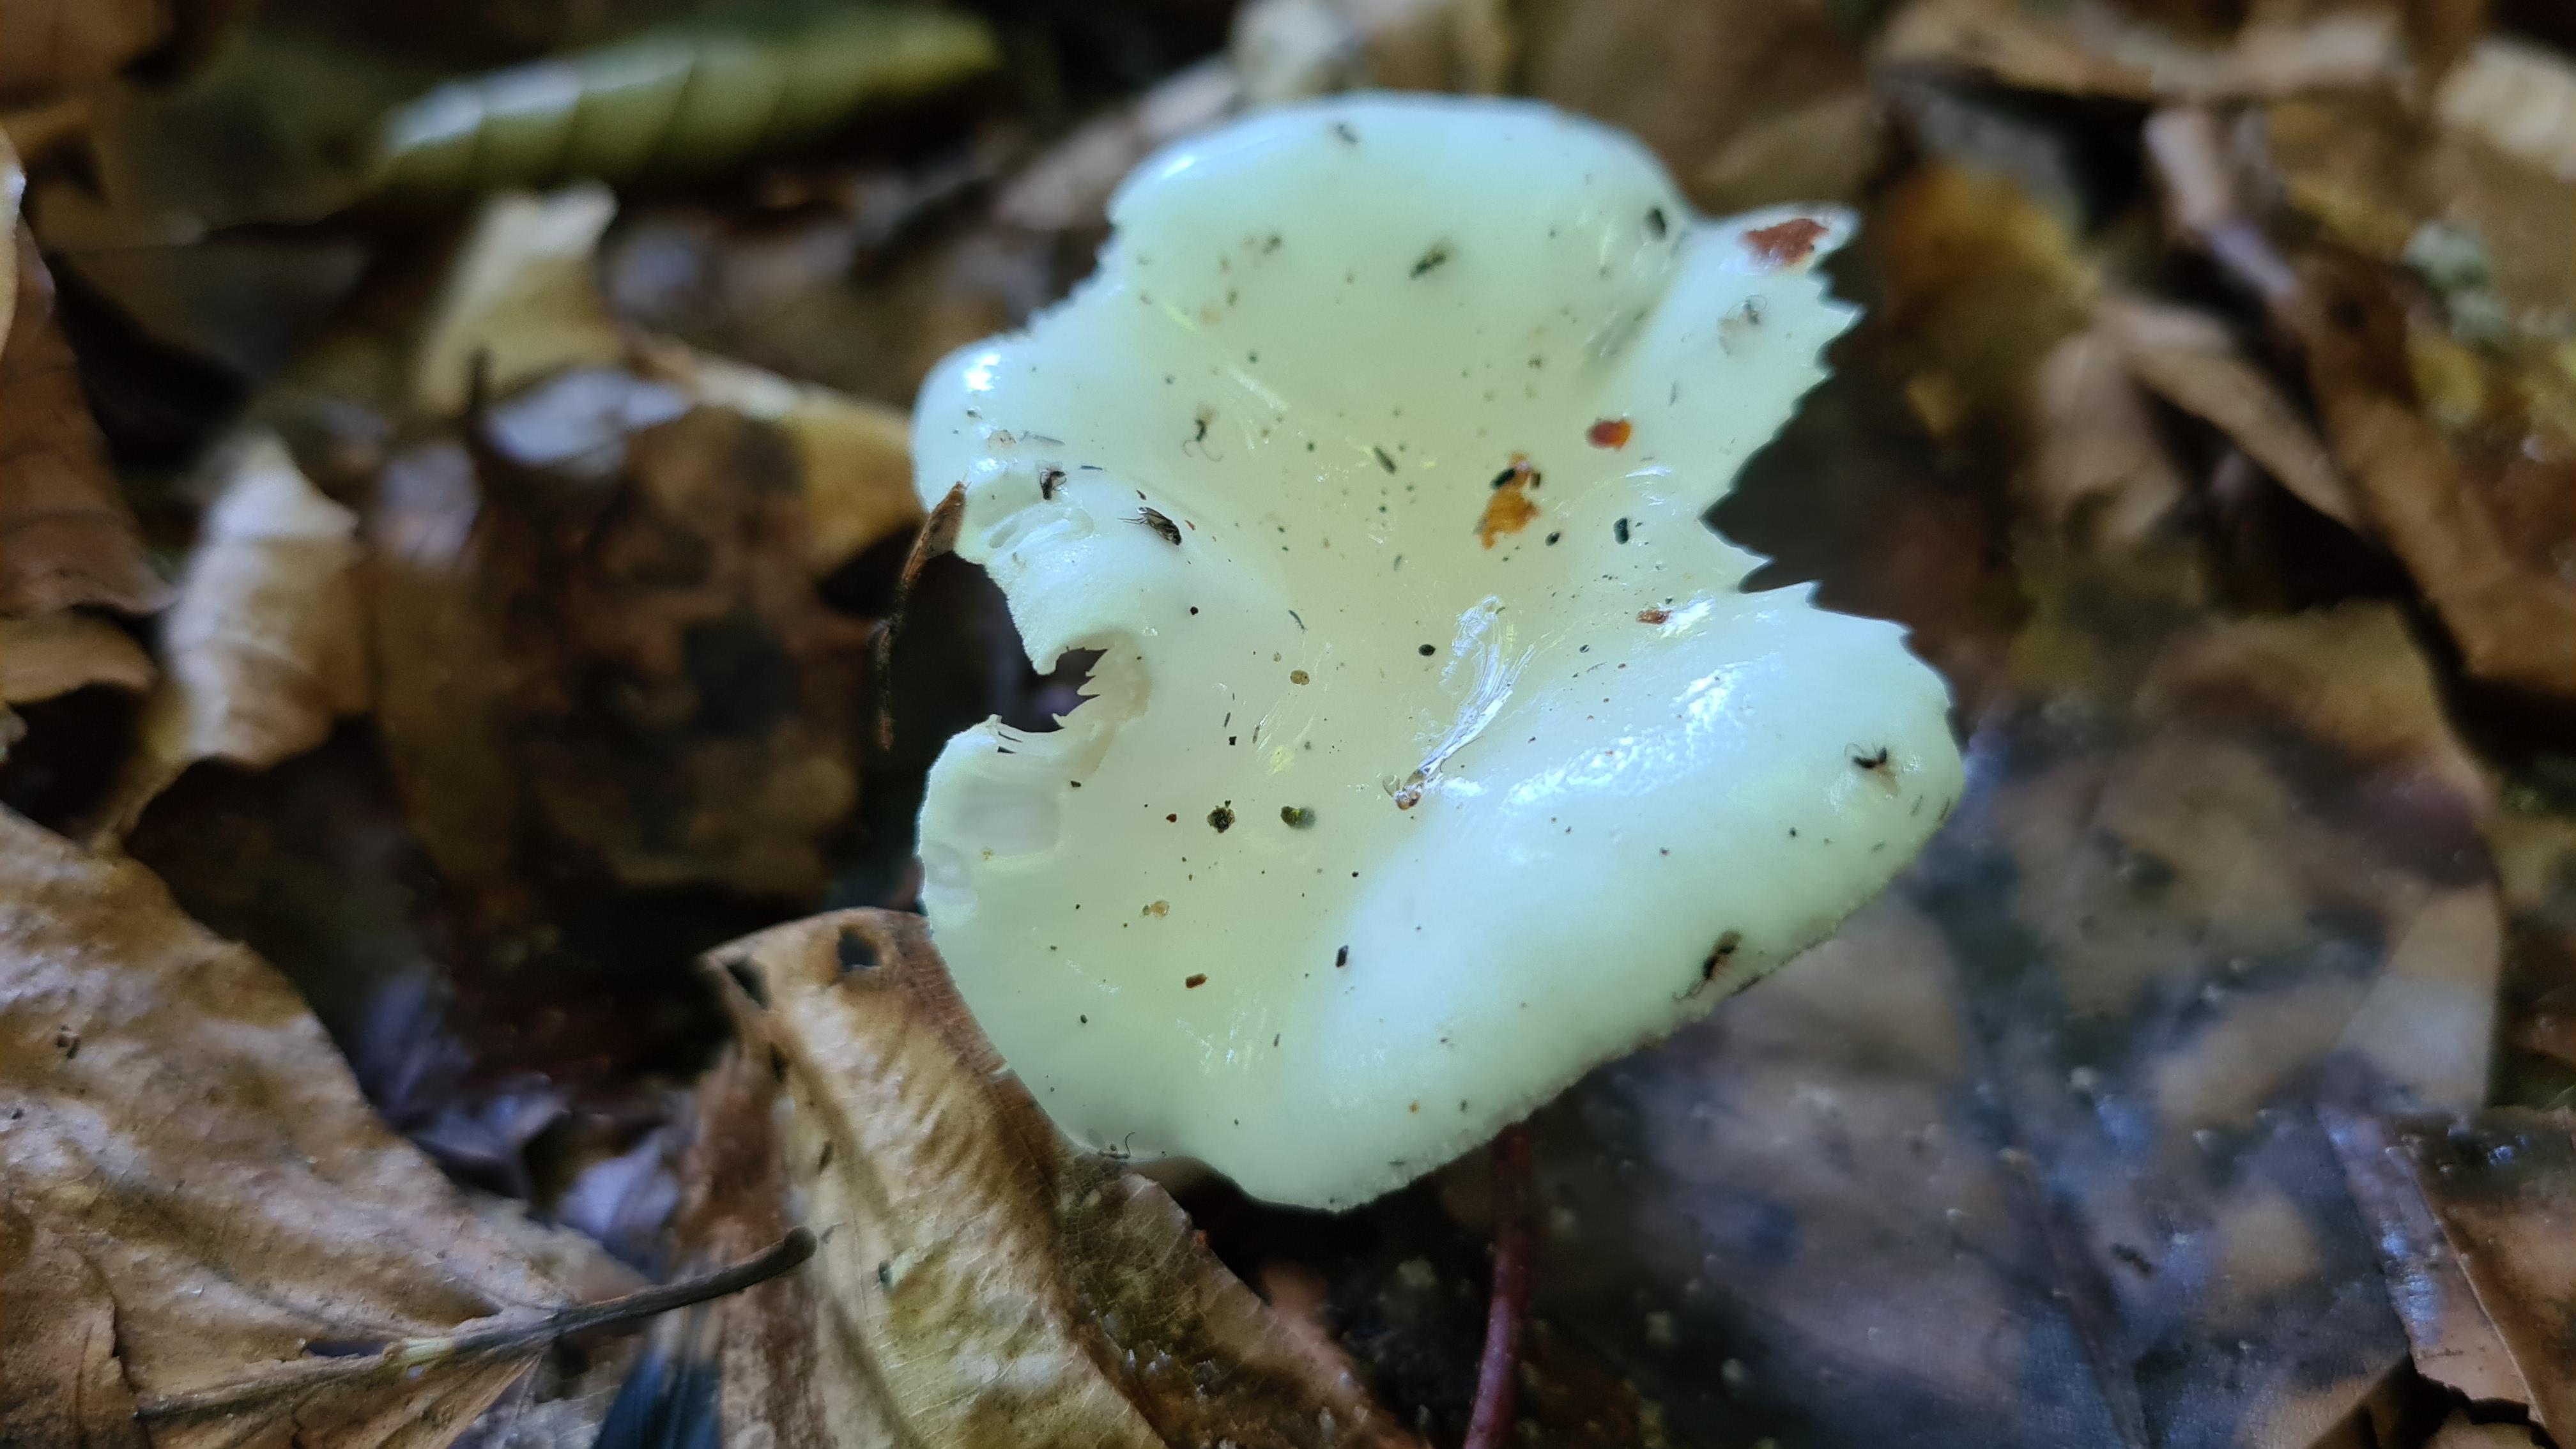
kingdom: Fungi
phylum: Basidiomycota
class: Agaricomycetes
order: Agaricales
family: Hygrophoraceae
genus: Hygrophorus
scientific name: Hygrophorus eburneus
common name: elfenbens-sneglehat
